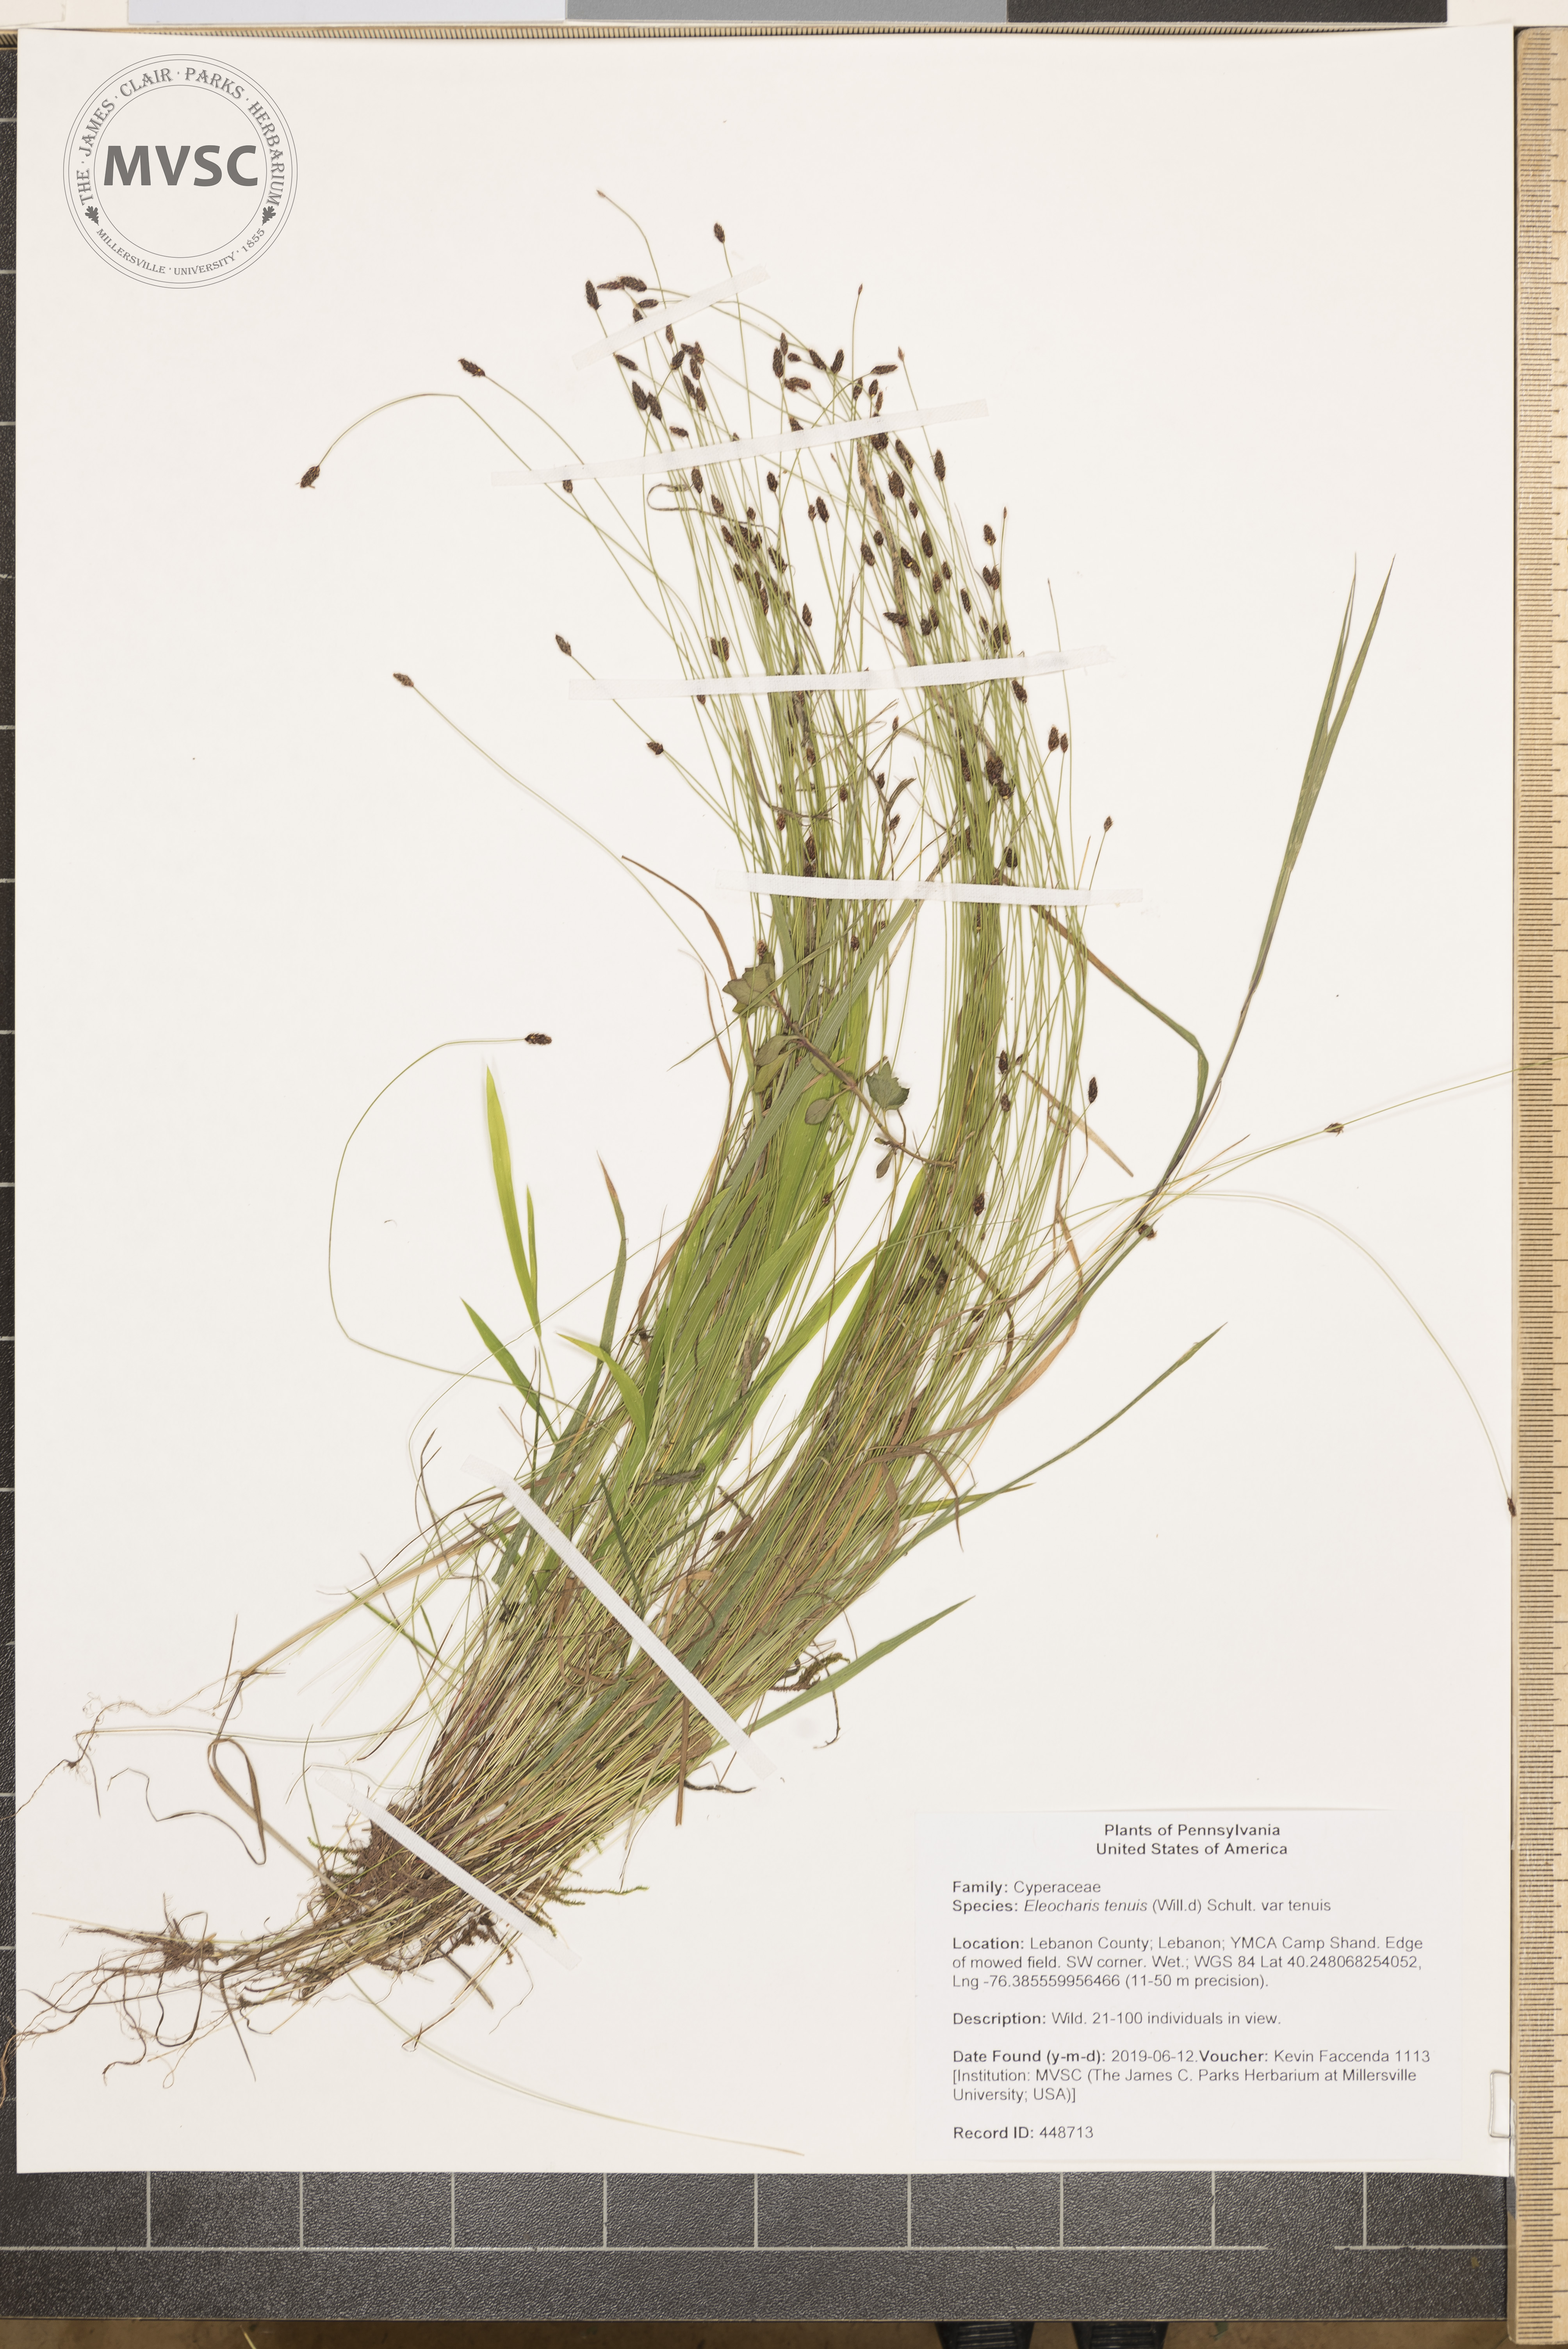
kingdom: Plantae
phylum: Tracheophyta
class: Liliopsida
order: Poales
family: Cyperaceae
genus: Eleocharis
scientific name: Eleocharis tenuis
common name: Dog's hair
